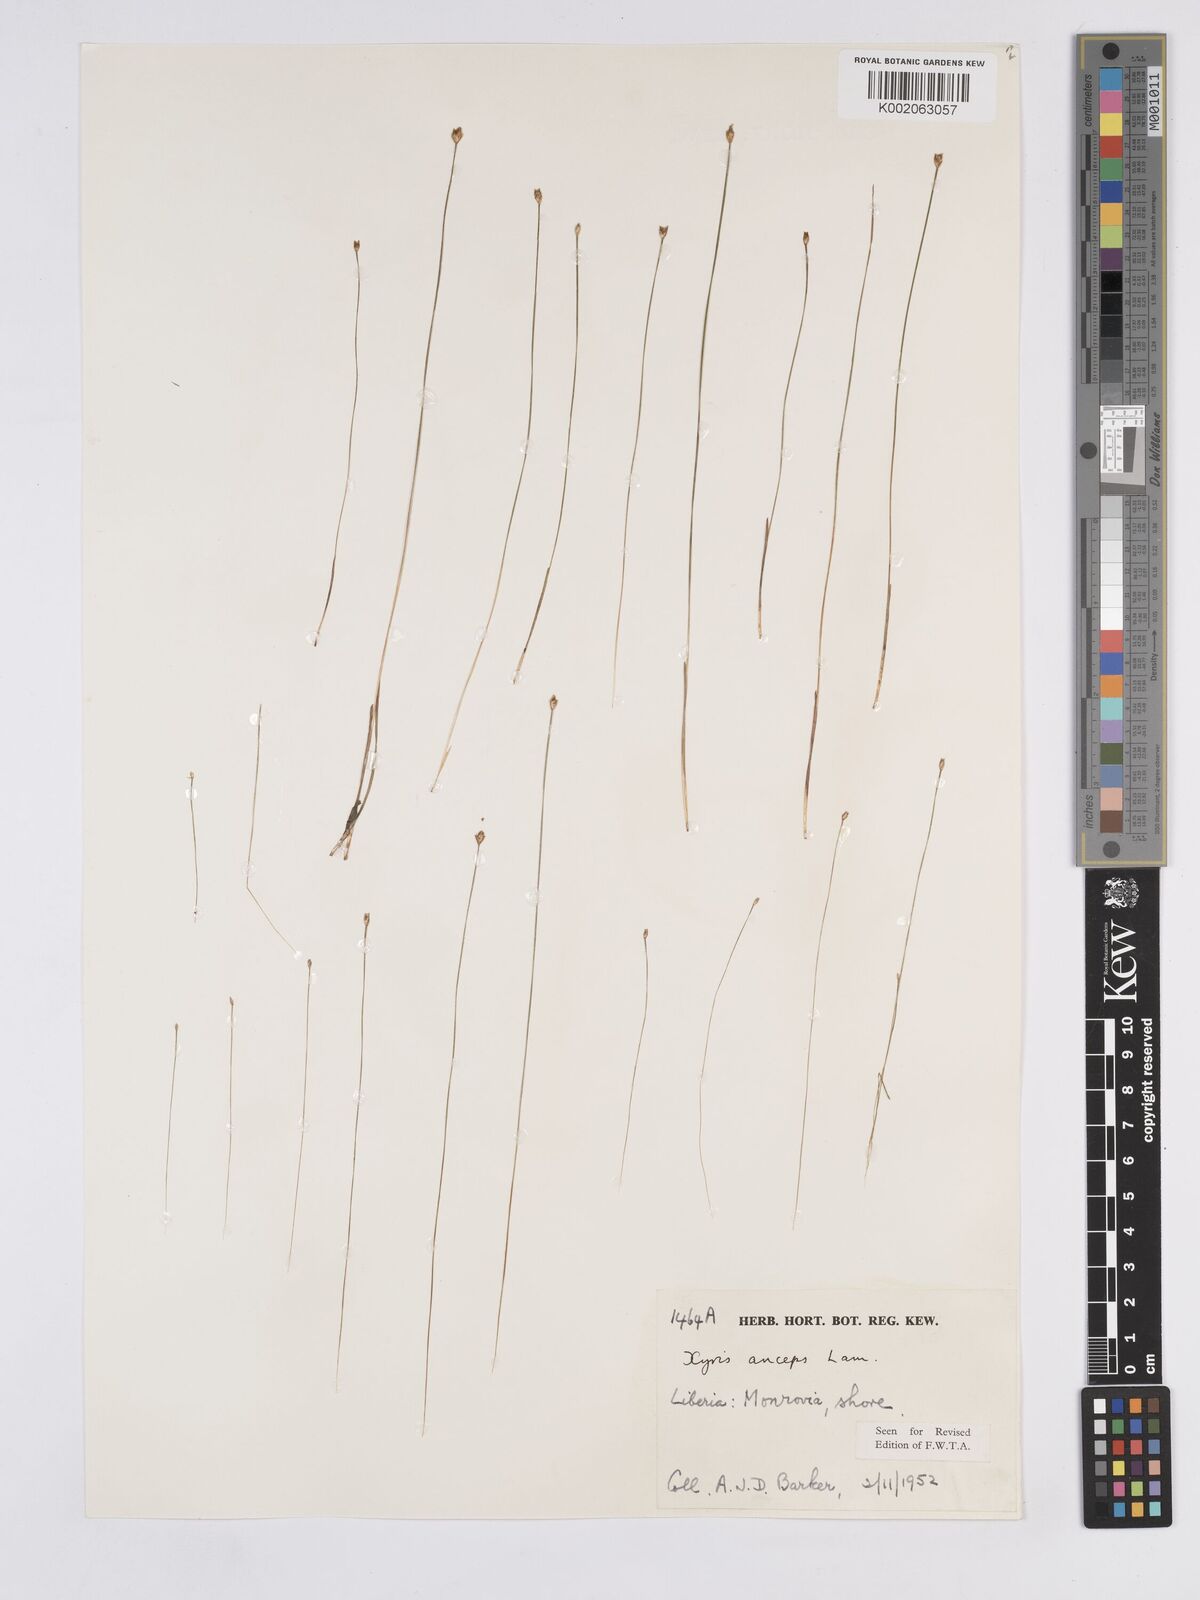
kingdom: Plantae
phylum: Tracheophyta
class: Liliopsida
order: Poales
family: Xyridaceae
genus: Xyris
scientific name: Xyris anceps
